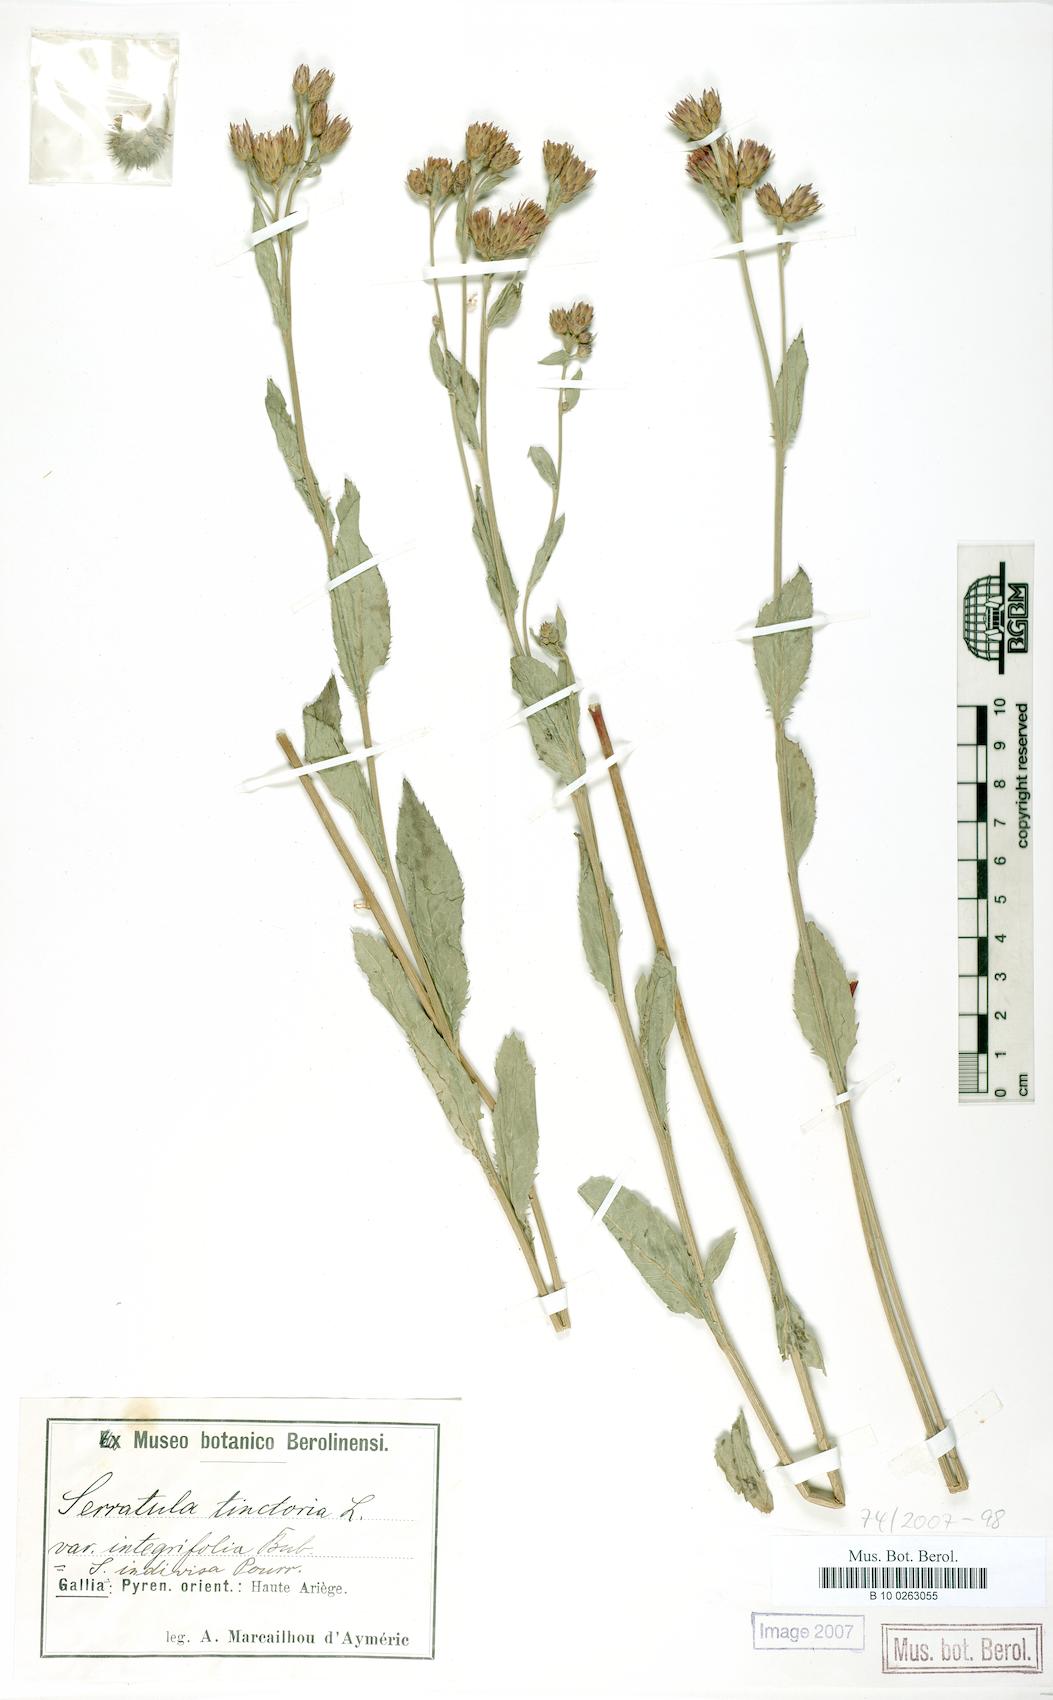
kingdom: Plantae
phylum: Tracheophyta
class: Magnoliopsida
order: Asterales
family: Asteraceae
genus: Serratula
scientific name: Serratula tinctoria
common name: Saw-wort
